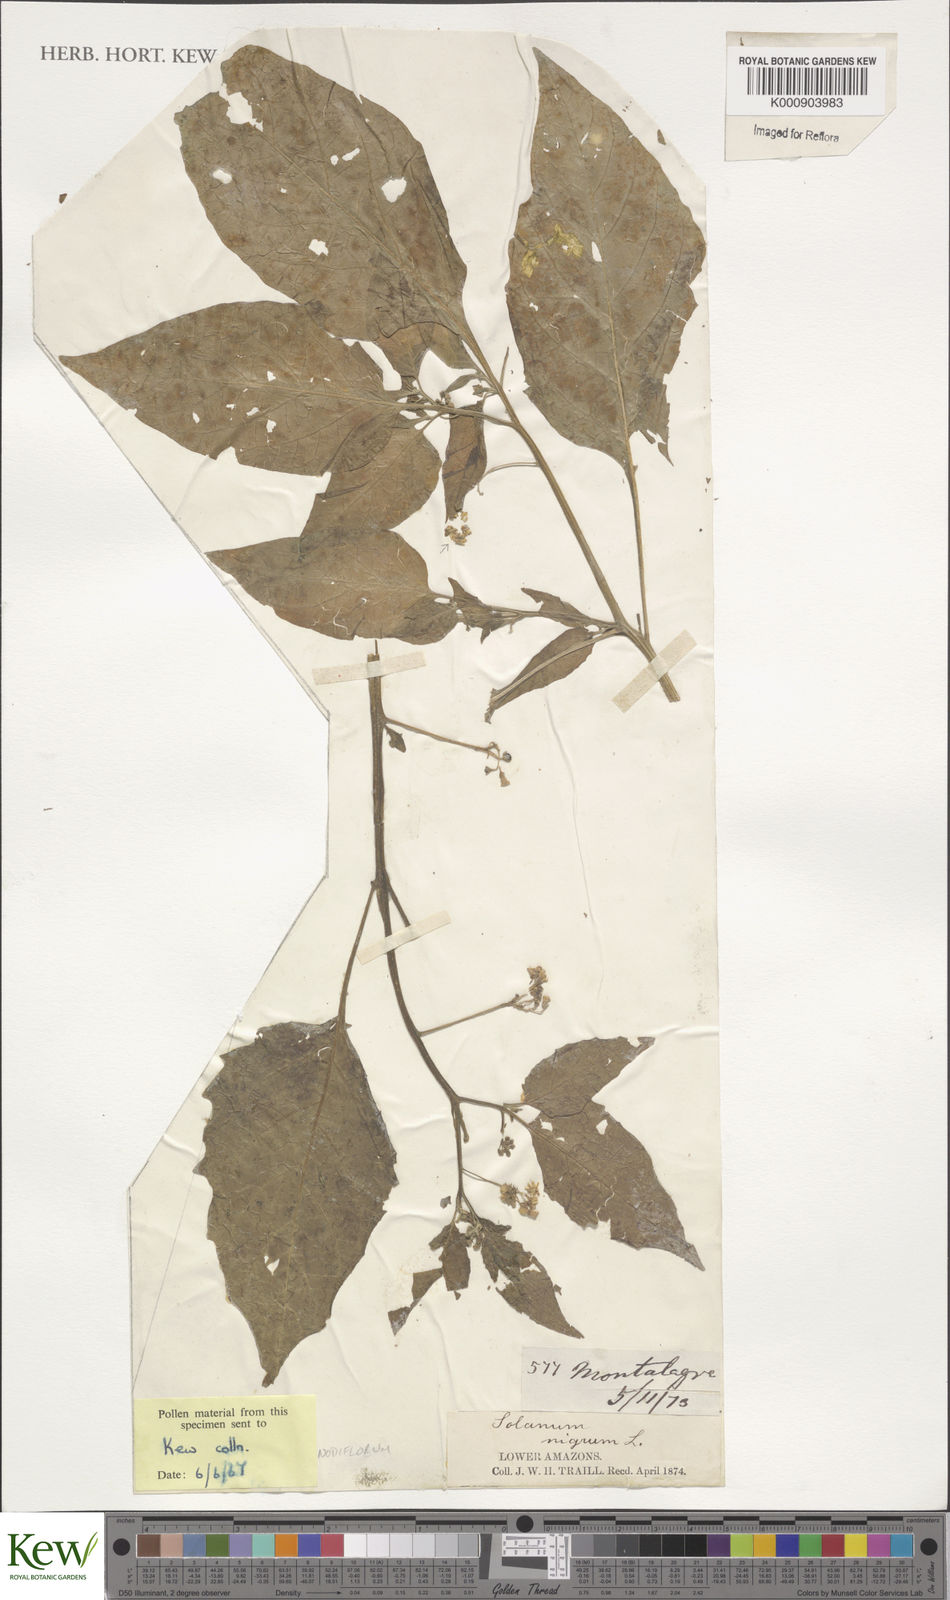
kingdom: Plantae
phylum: Tracheophyta
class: Magnoliopsida
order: Solanales
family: Solanaceae
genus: Solanum
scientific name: Solanum americanum
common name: American black nightshade
